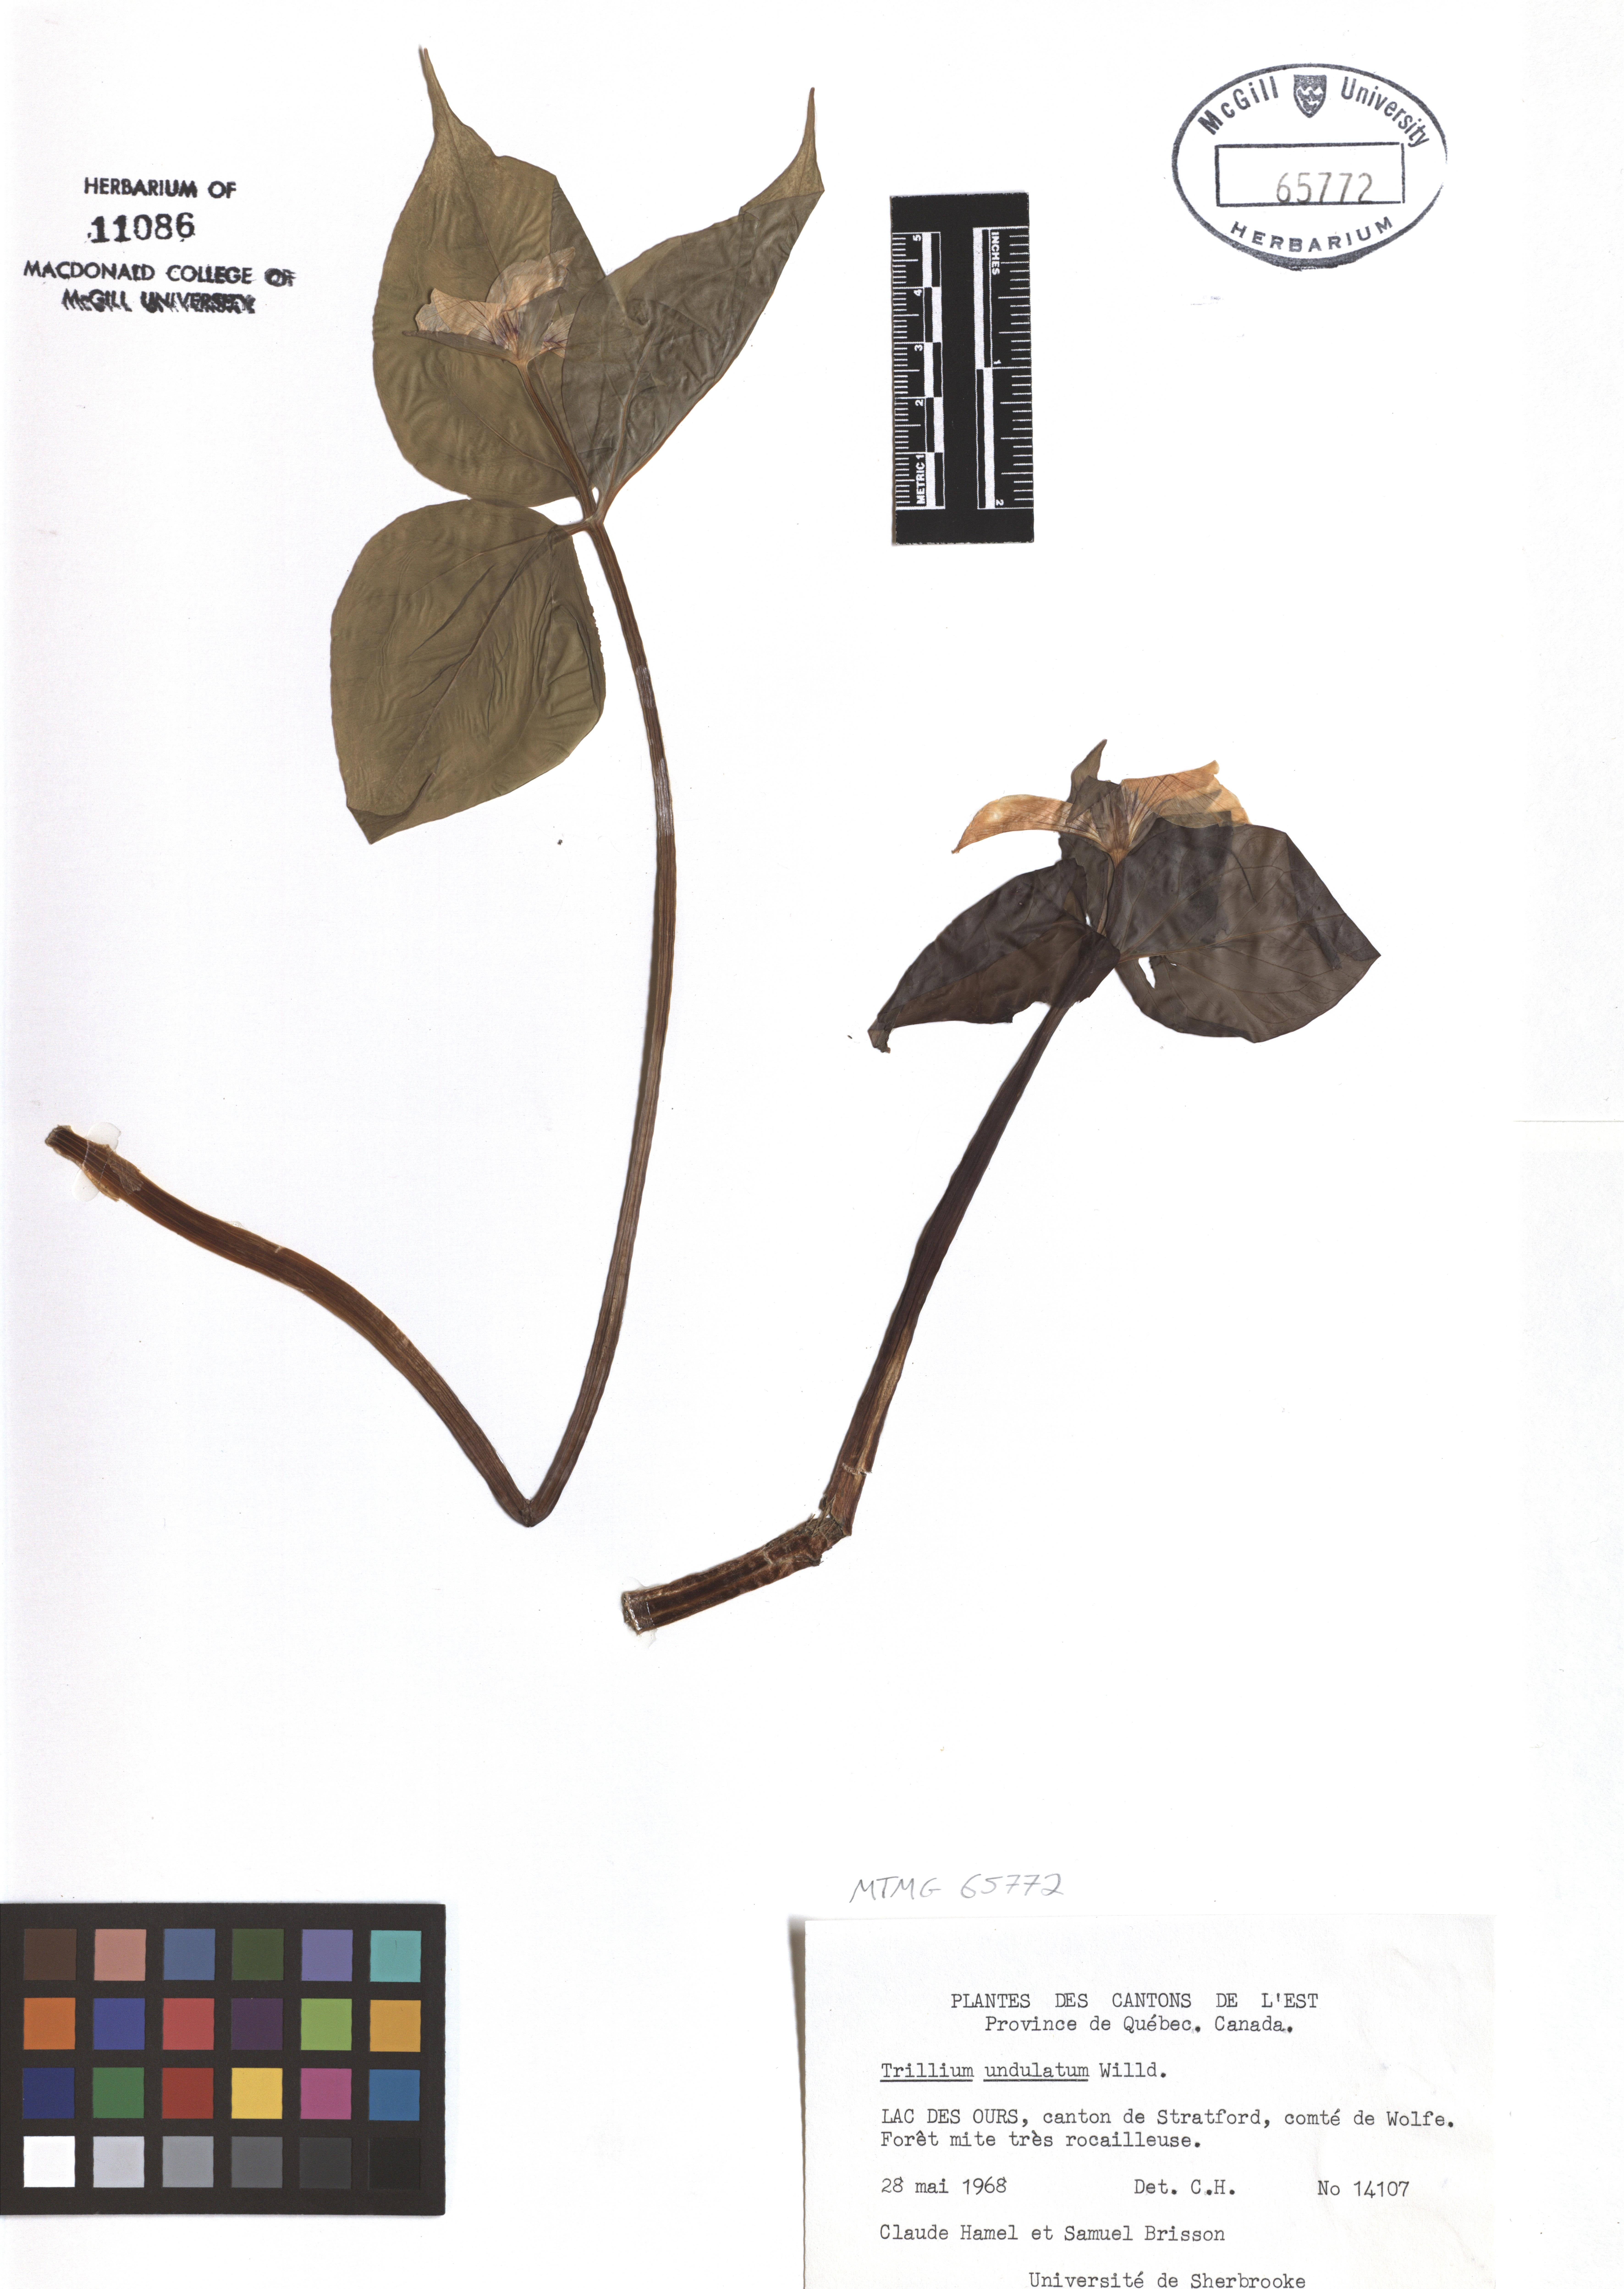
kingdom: Plantae
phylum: Tracheophyta
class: Liliopsida
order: Liliales
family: Melanthiaceae
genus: Trillium
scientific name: Trillium undulatum
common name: Paint trillium
